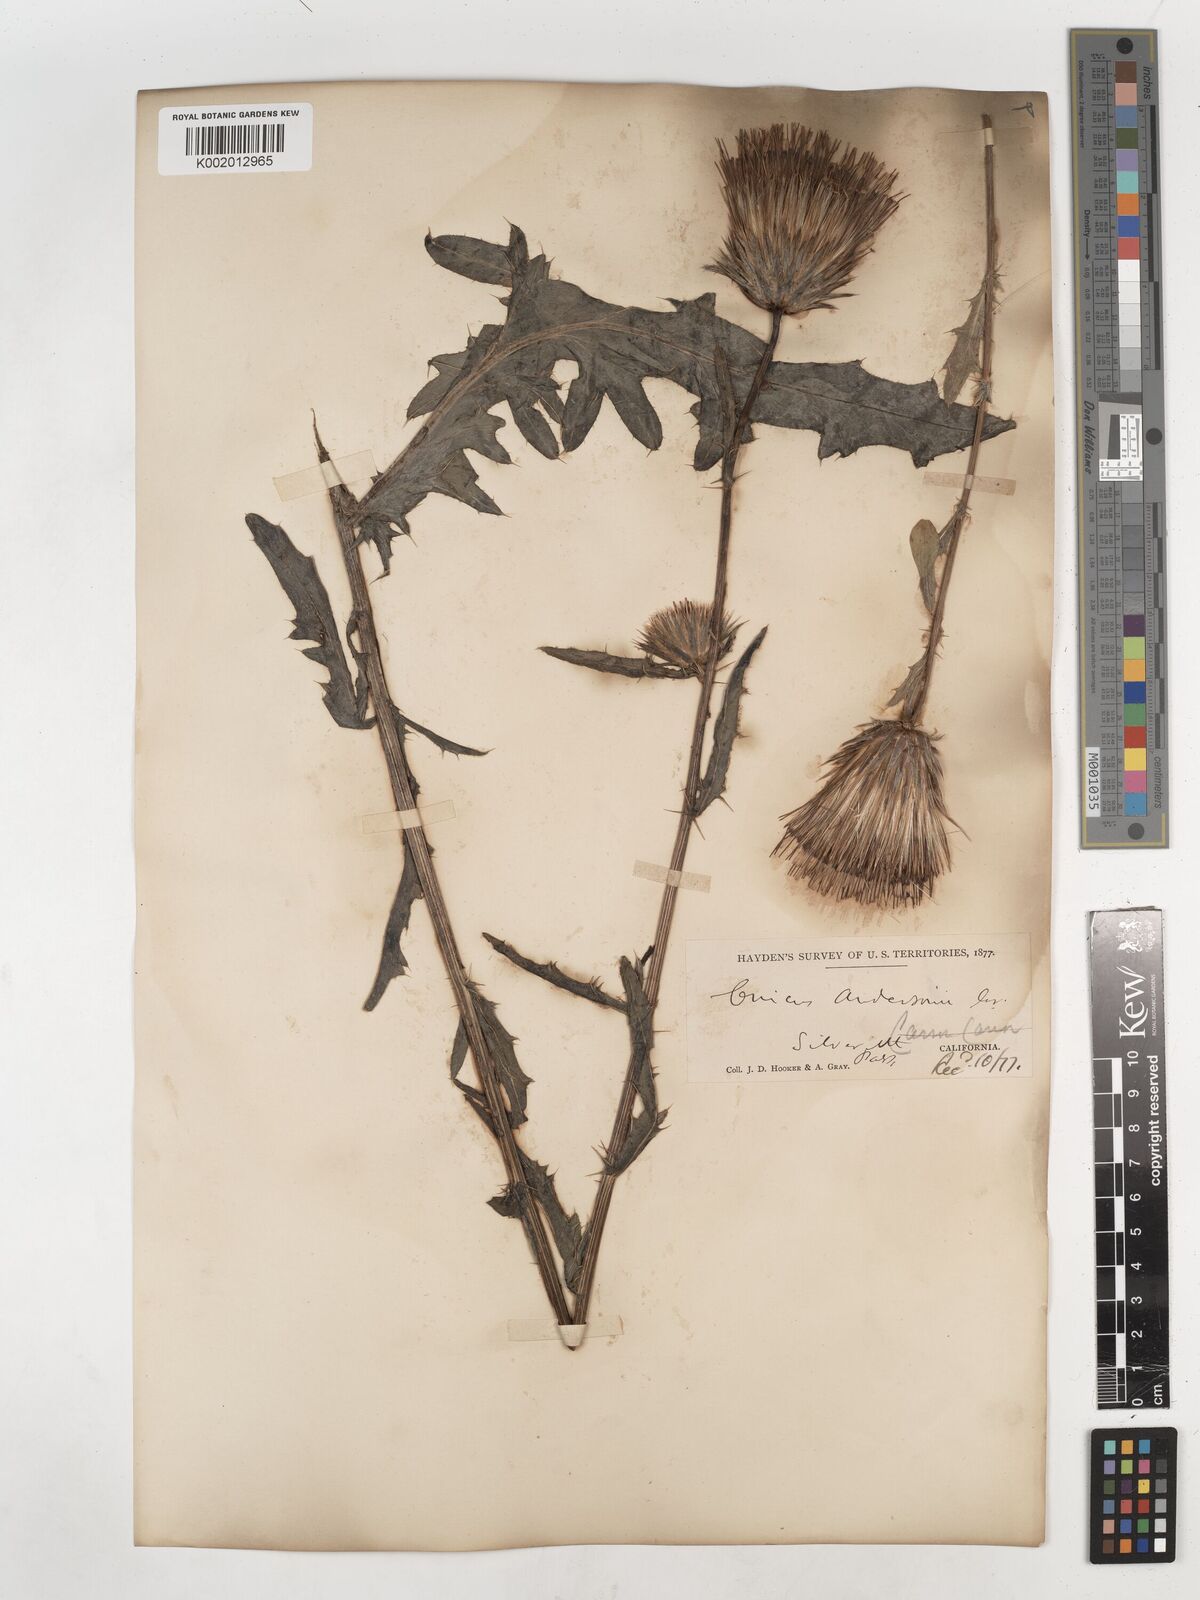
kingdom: Plantae
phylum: Tracheophyta
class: Magnoliopsida
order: Asterales
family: Asteraceae
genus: Cirsium
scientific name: Cirsium
